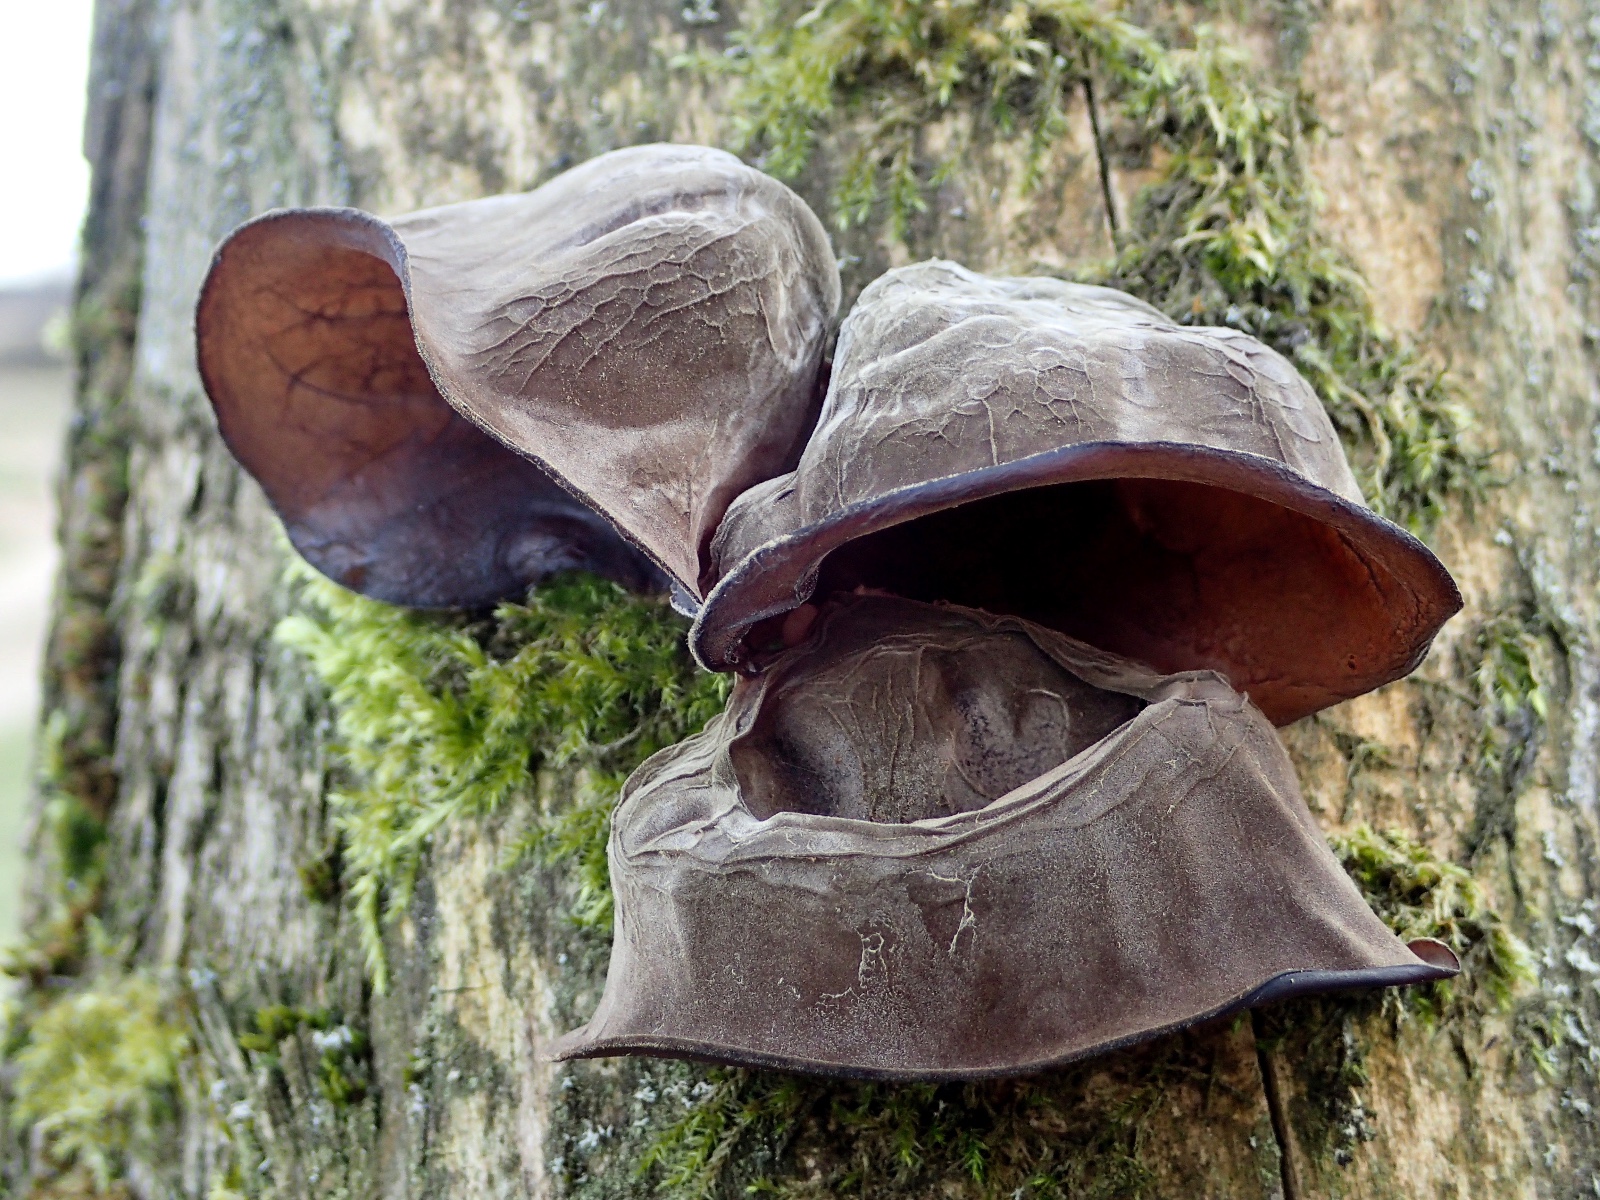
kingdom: Fungi
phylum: Basidiomycota
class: Agaricomycetes
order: Auriculariales
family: Auriculariaceae
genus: Auricularia
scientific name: Auricularia auricula-judae
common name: almindelig judasøre
